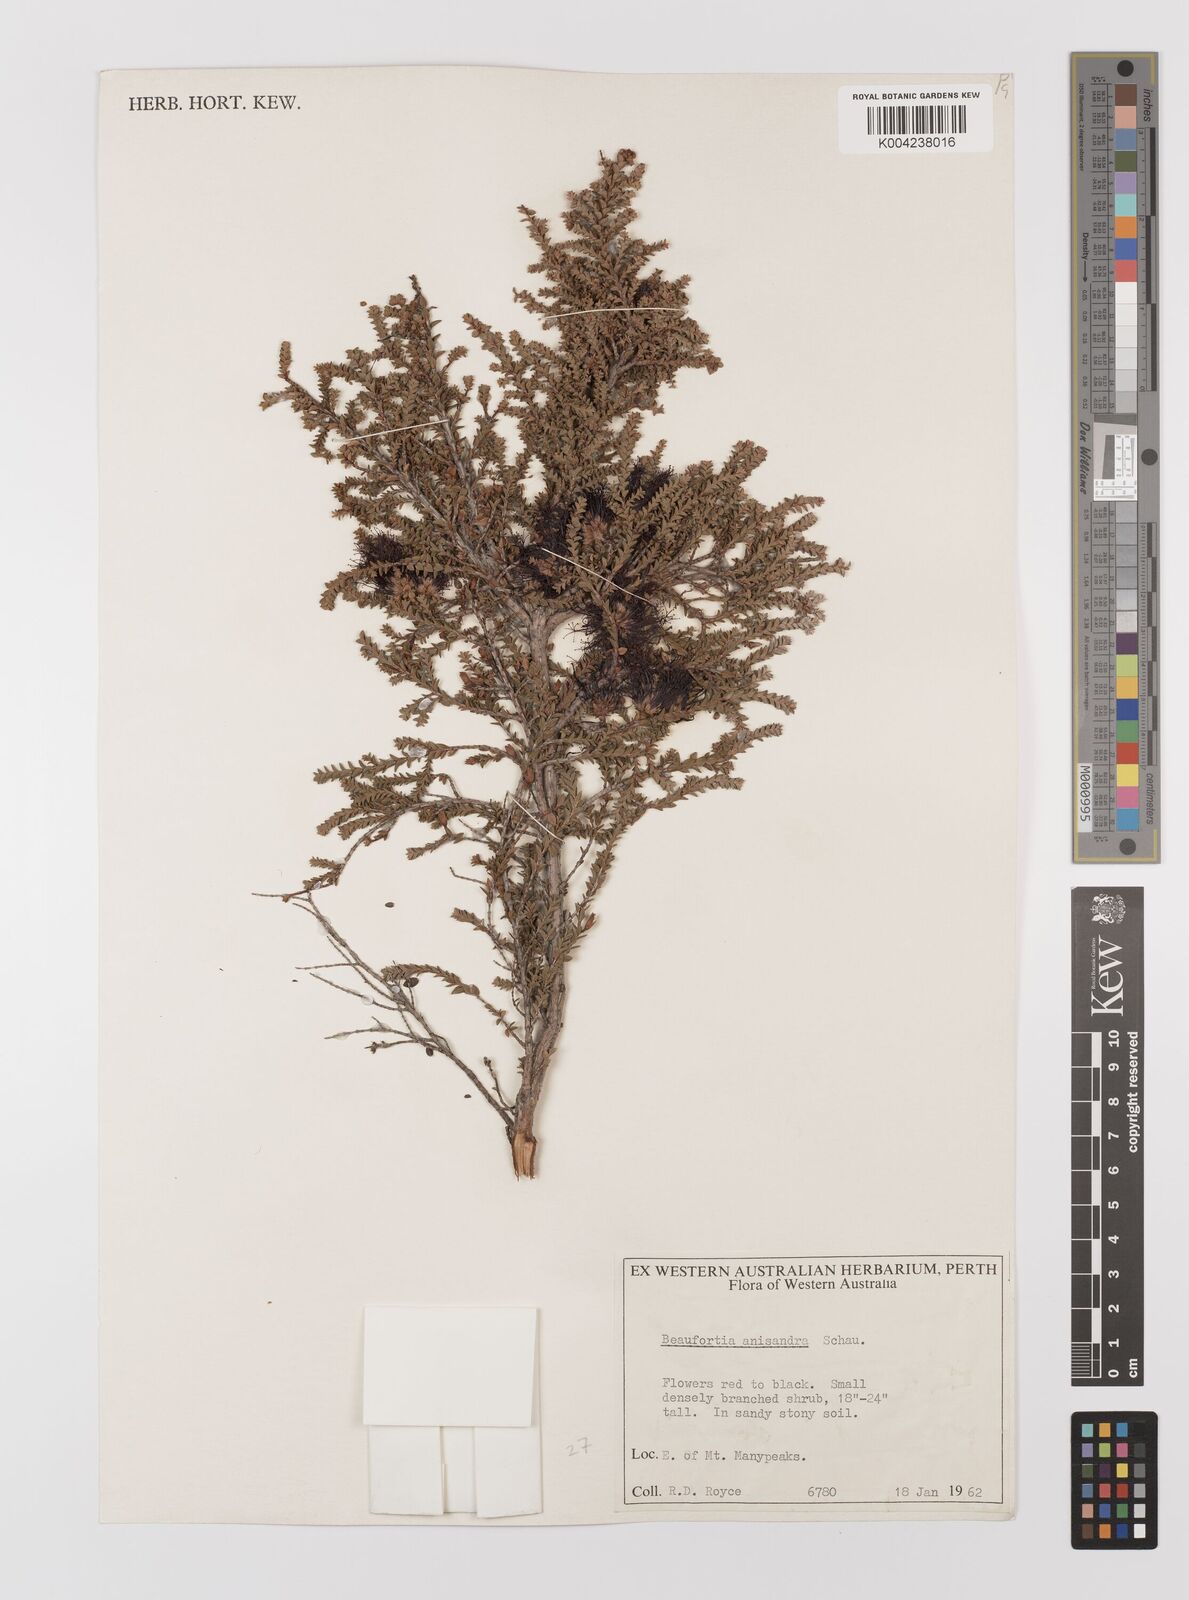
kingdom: Plantae
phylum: Tracheophyta
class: Magnoliopsida
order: Myrtales
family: Myrtaceae
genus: Melaleuca
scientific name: Melaleuca anisandra
